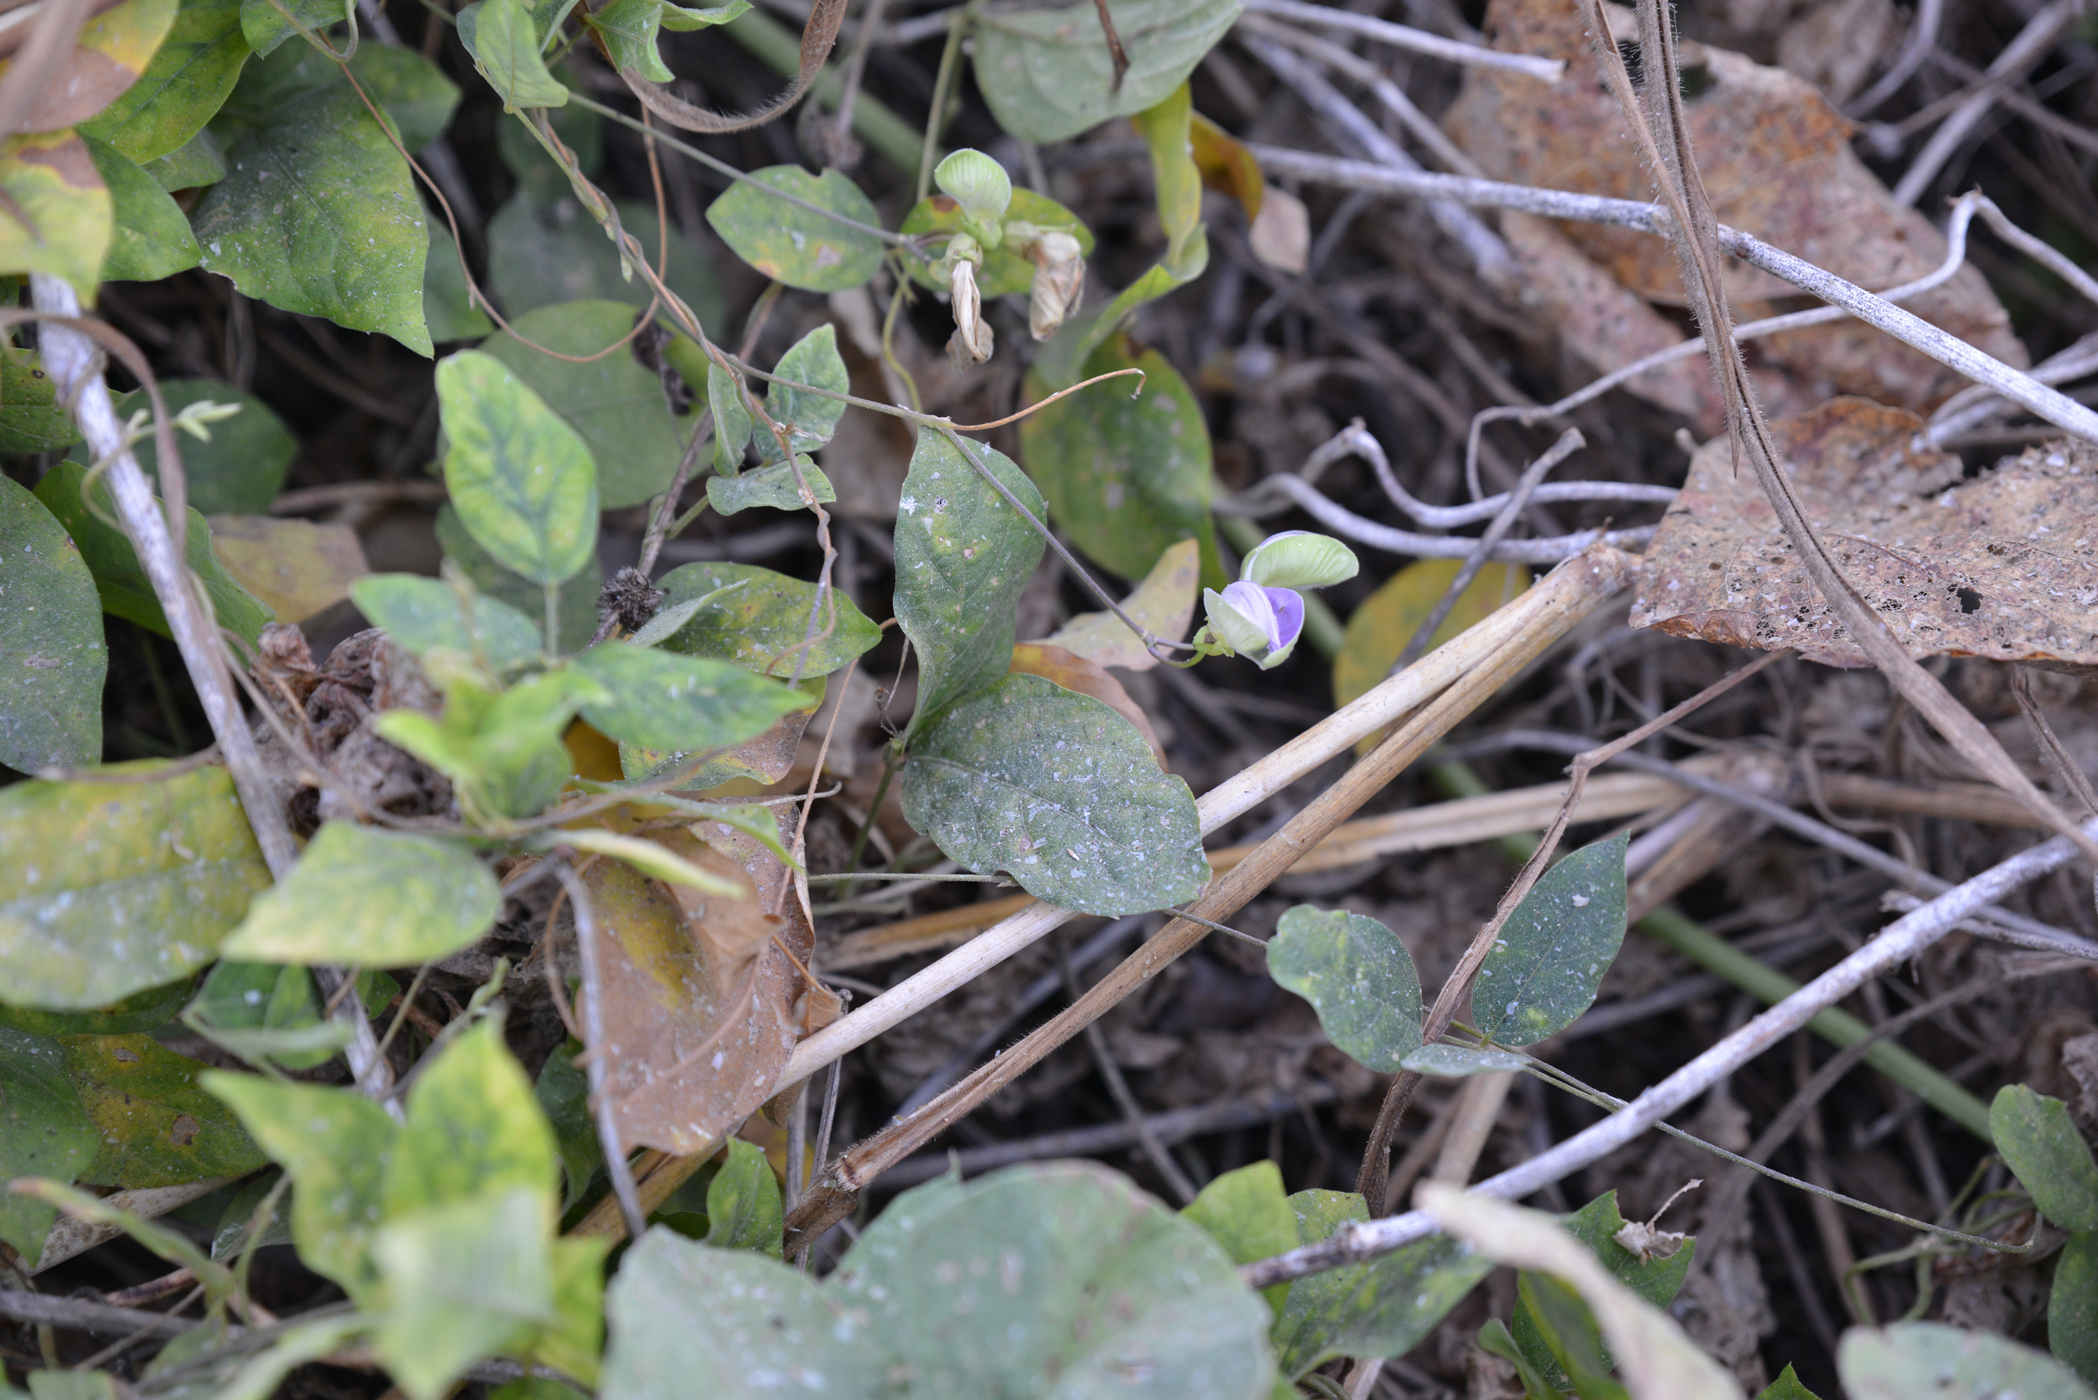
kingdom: Plantae
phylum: Tracheophyta
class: Magnoliopsida
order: Fabales
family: Fabaceae
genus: Centrosema
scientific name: Centrosema pubescens
